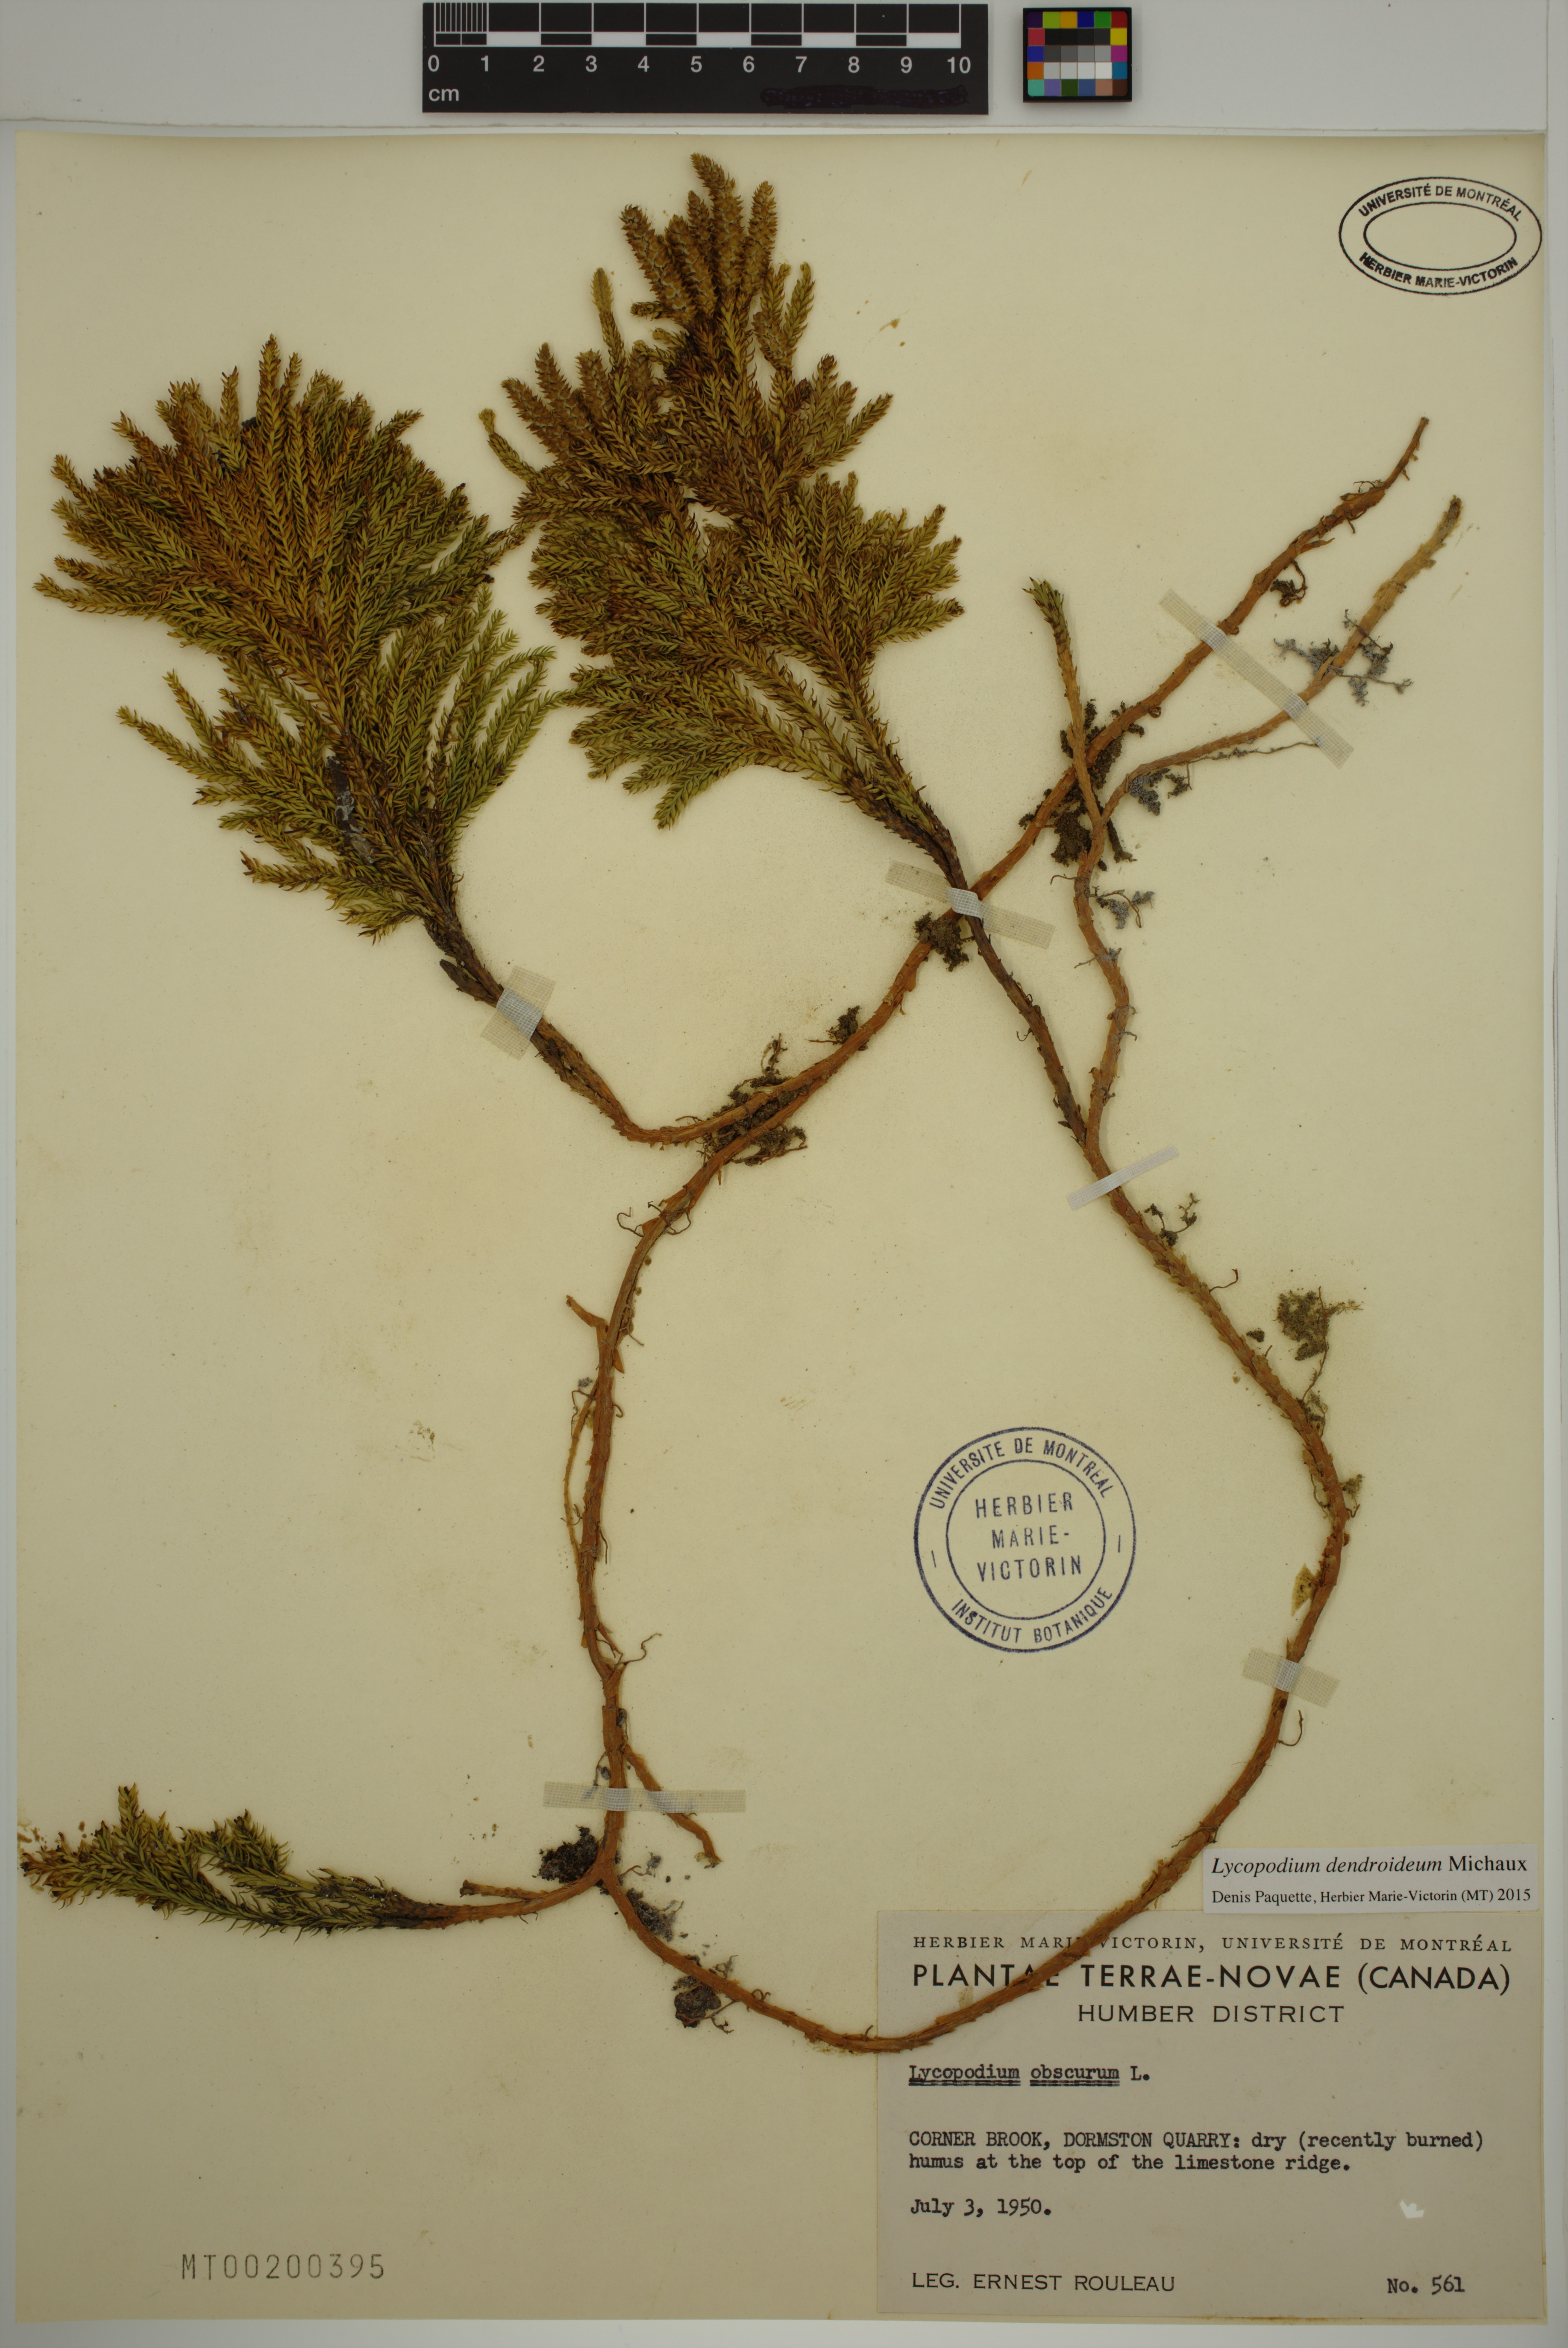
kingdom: Plantae
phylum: Tracheophyta
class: Lycopodiopsida
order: Lycopodiales
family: Lycopodiaceae
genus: Dendrolycopodium
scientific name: Dendrolycopodium dendroideum
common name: Northern tree-clubmoss
